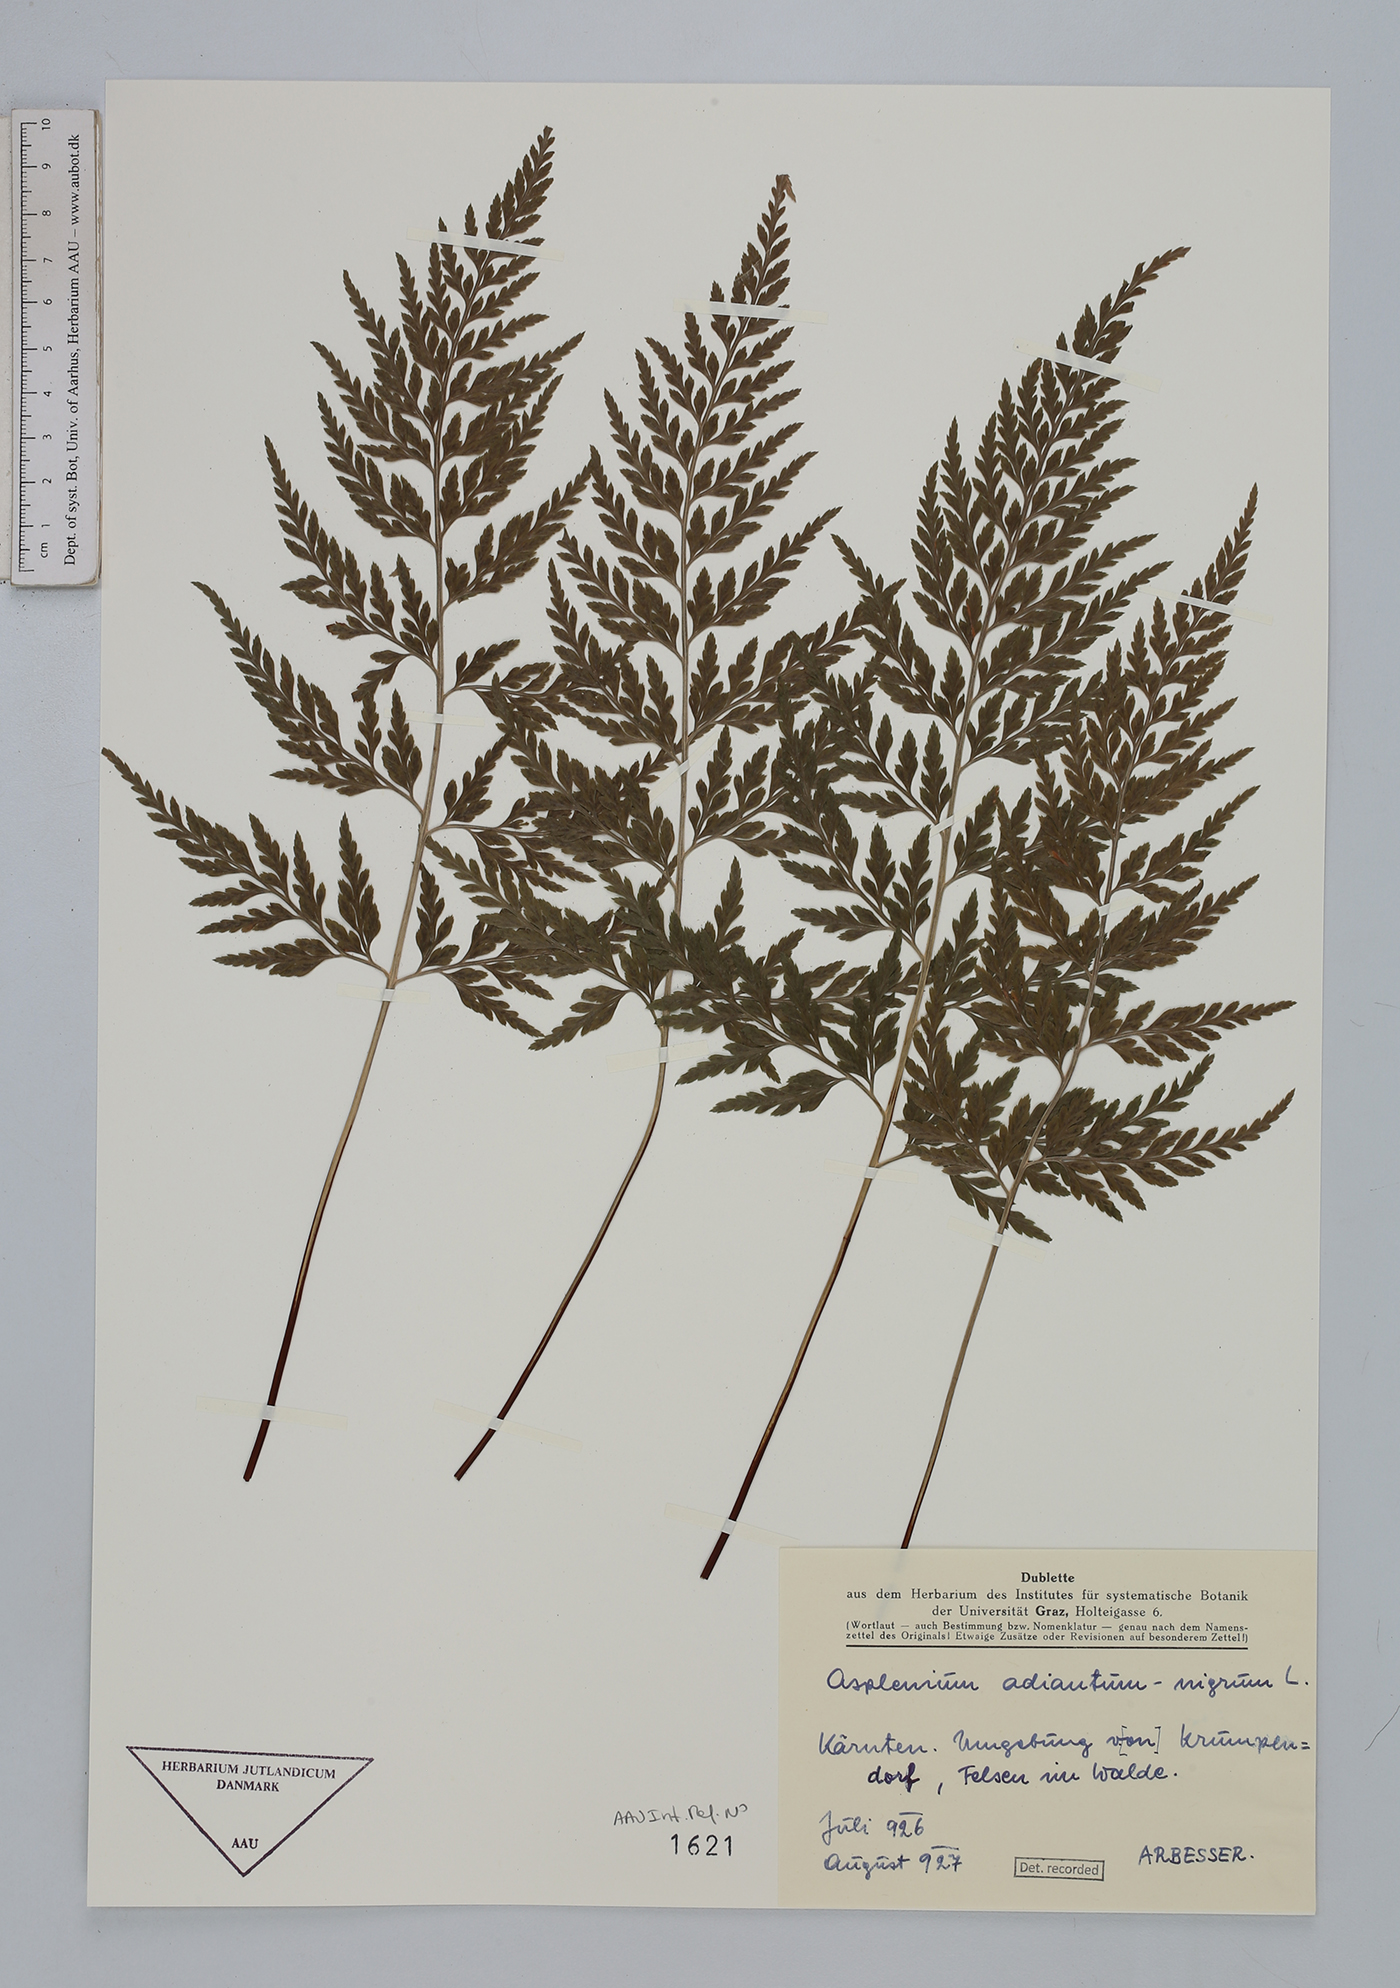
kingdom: Plantae
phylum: Tracheophyta
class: Polypodiopsida
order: Polypodiales
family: Aspleniaceae
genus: Asplenium
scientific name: Asplenium adiantum-nigrum
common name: Black spleenwort
